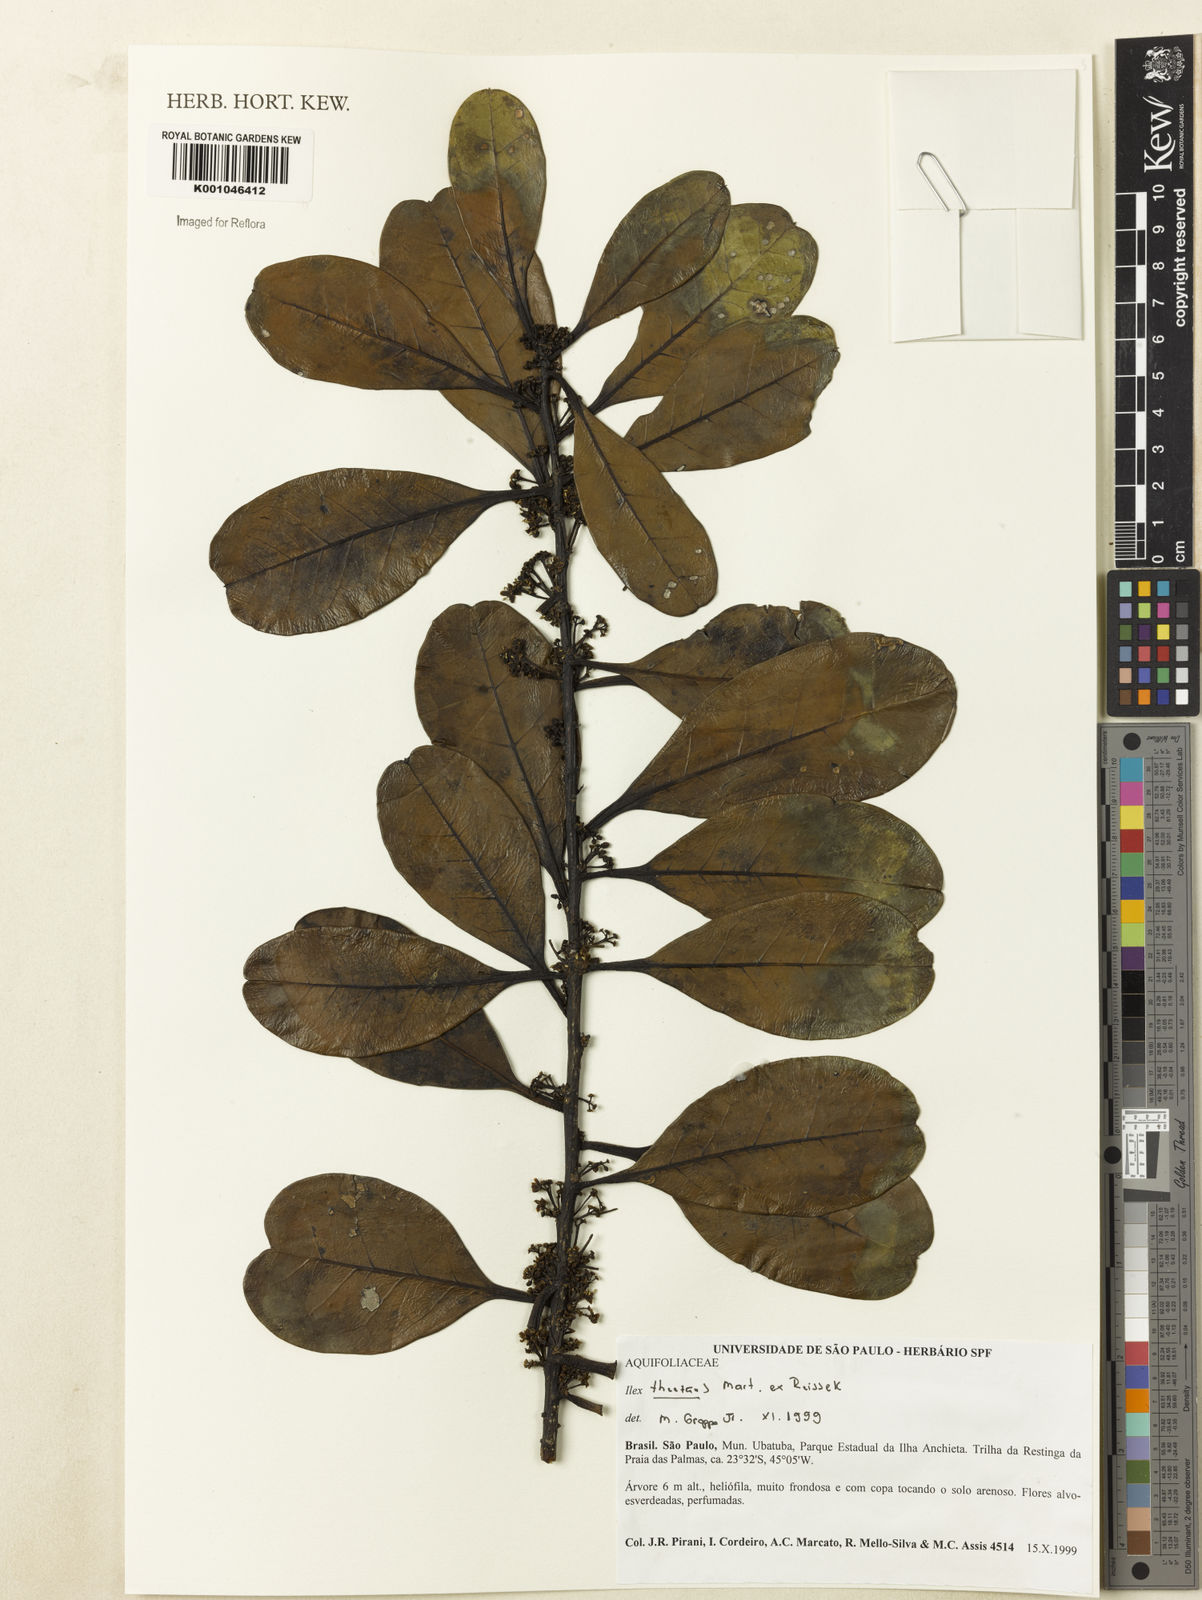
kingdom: Plantae
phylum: Tracheophyta
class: Magnoliopsida
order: Aquifoliales
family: Aquifoliaceae
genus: Ilex
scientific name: Ilex paraguariensis
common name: Paraguay tea
